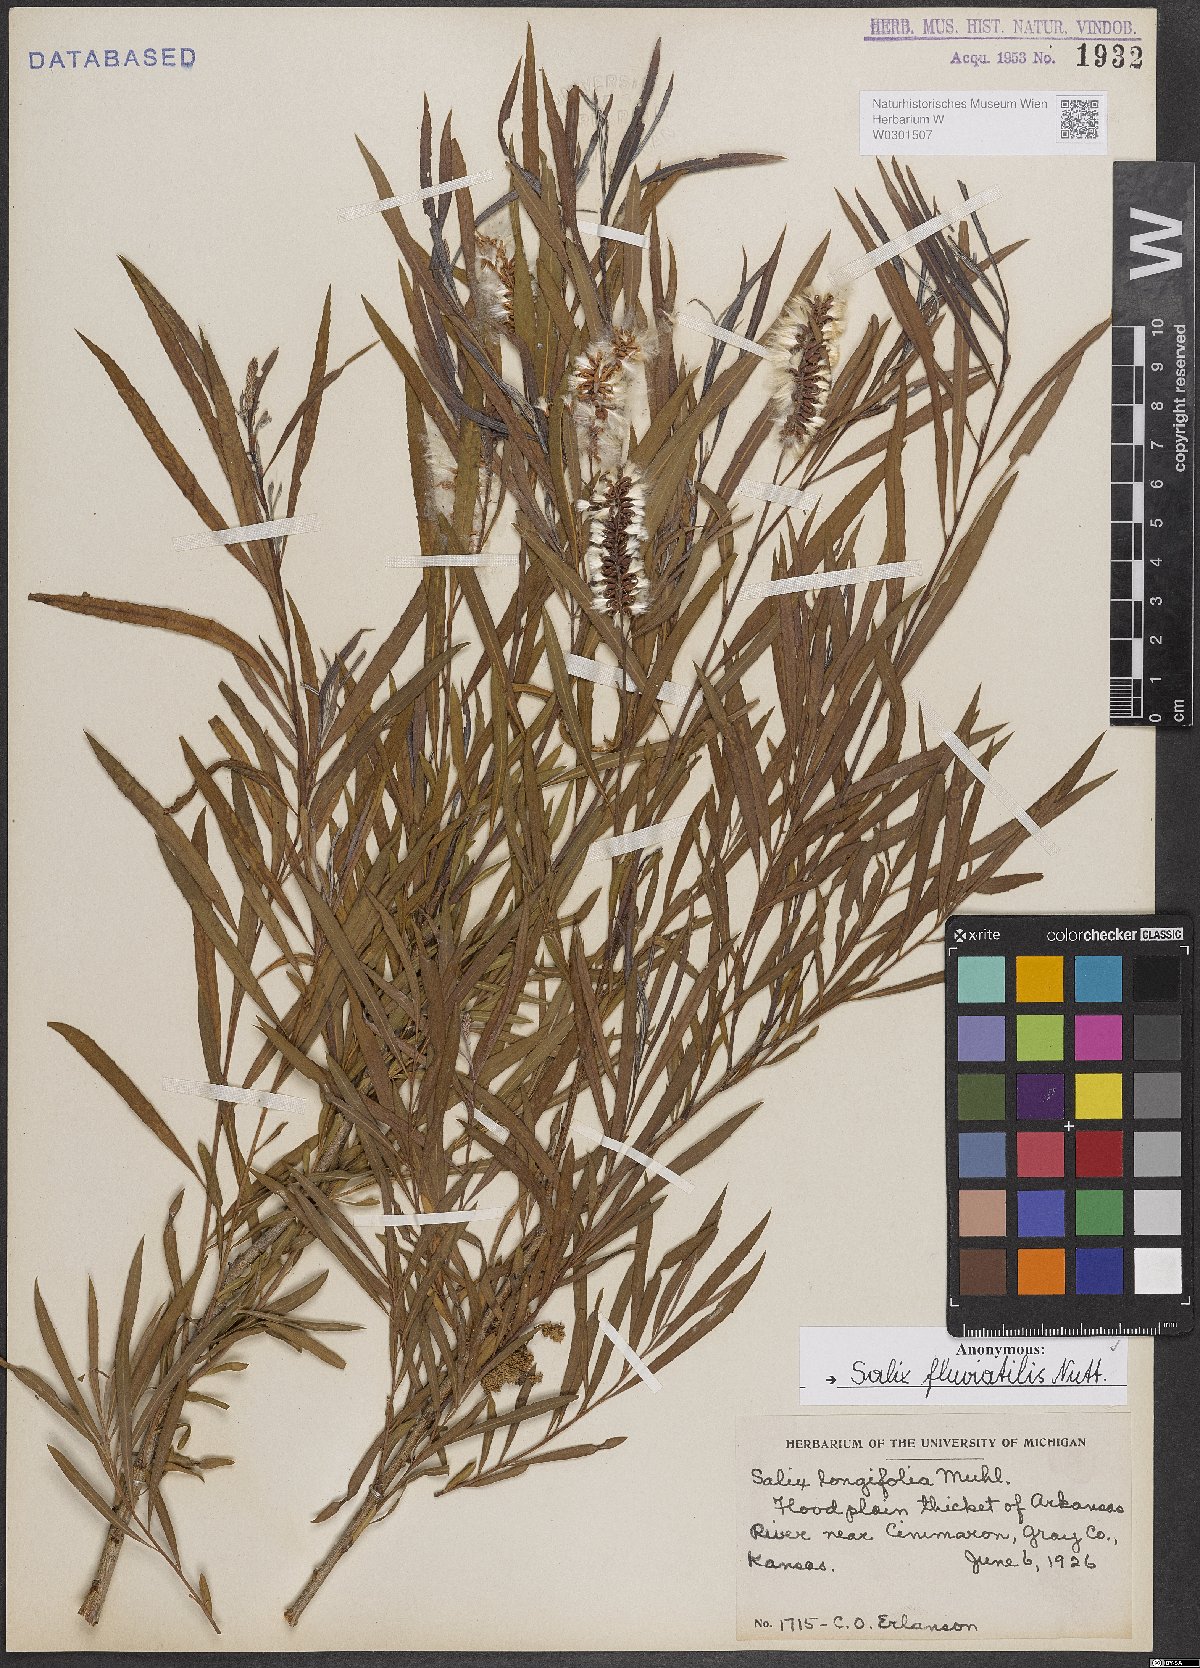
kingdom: Plantae
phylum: Tracheophyta
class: Magnoliopsida
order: Malpighiales
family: Salicaceae
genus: Salix
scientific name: Salix melanopsis
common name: Dusky willow
